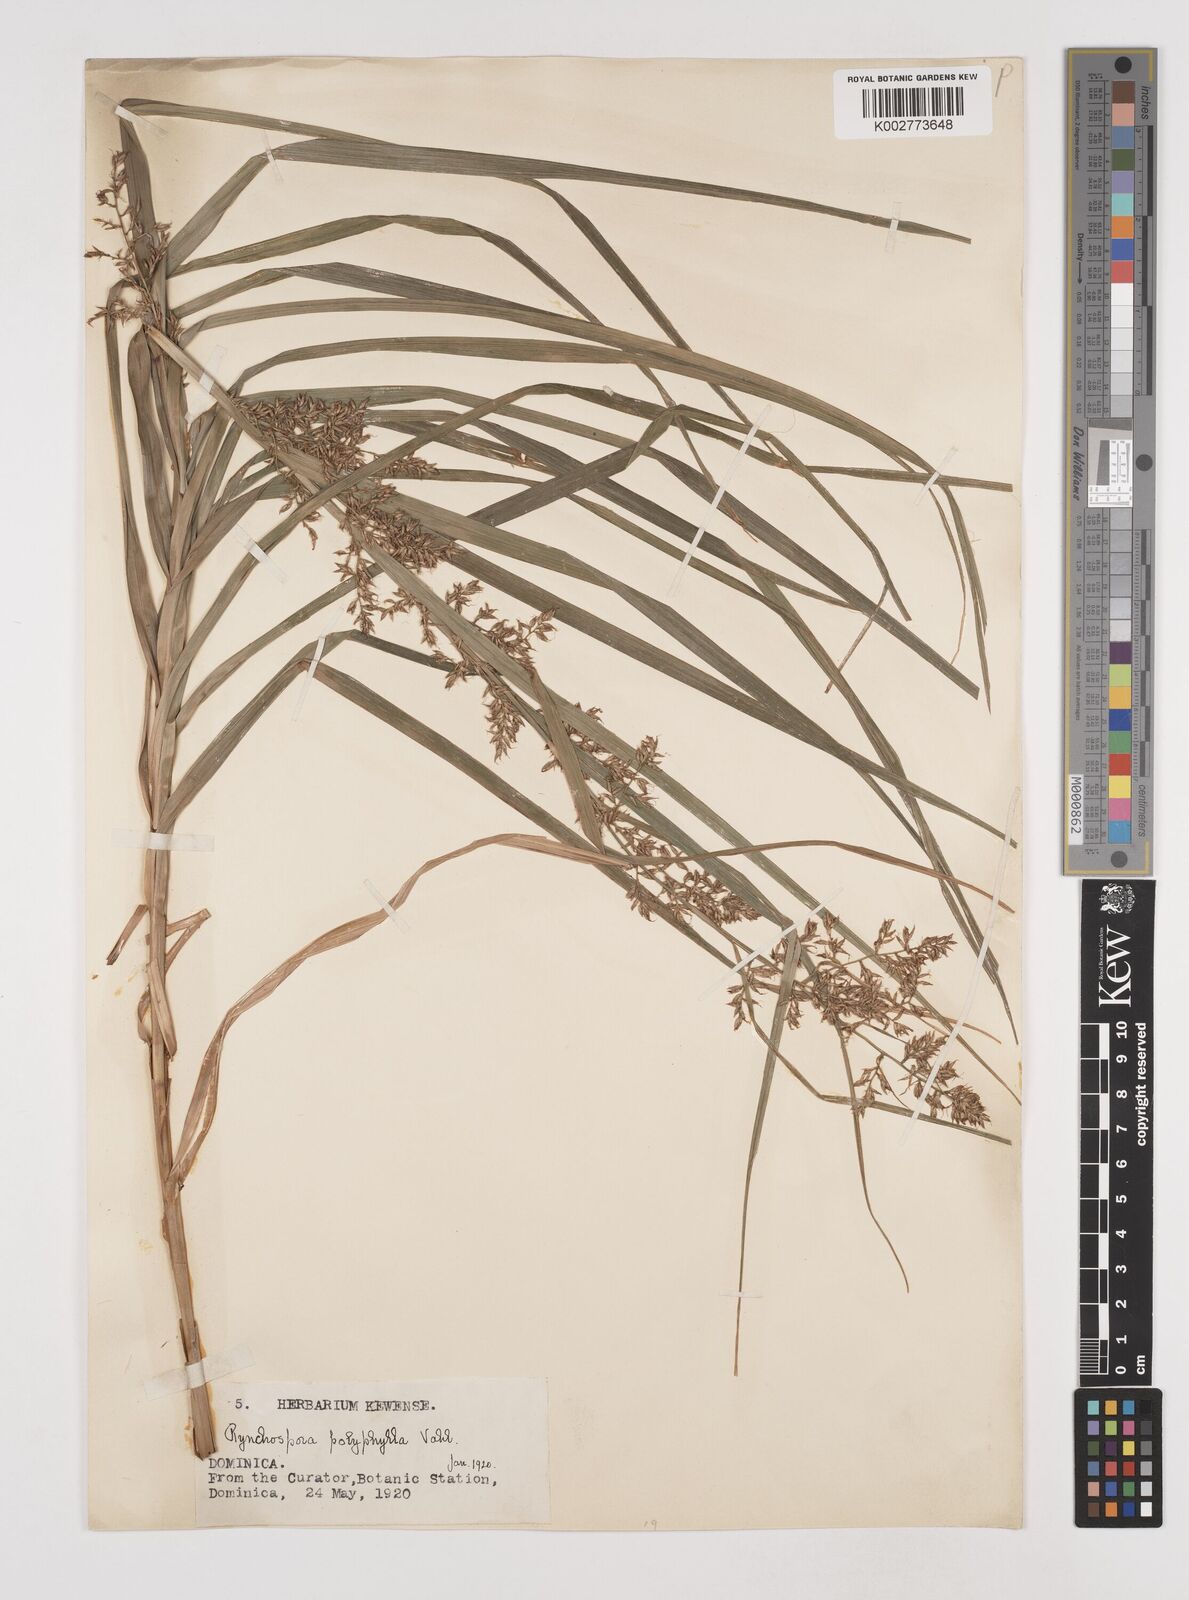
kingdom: Plantae
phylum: Tracheophyta
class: Liliopsida
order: Poales
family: Cyperaceae
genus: Rhynchospora
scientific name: Rhynchospora polyphylla
